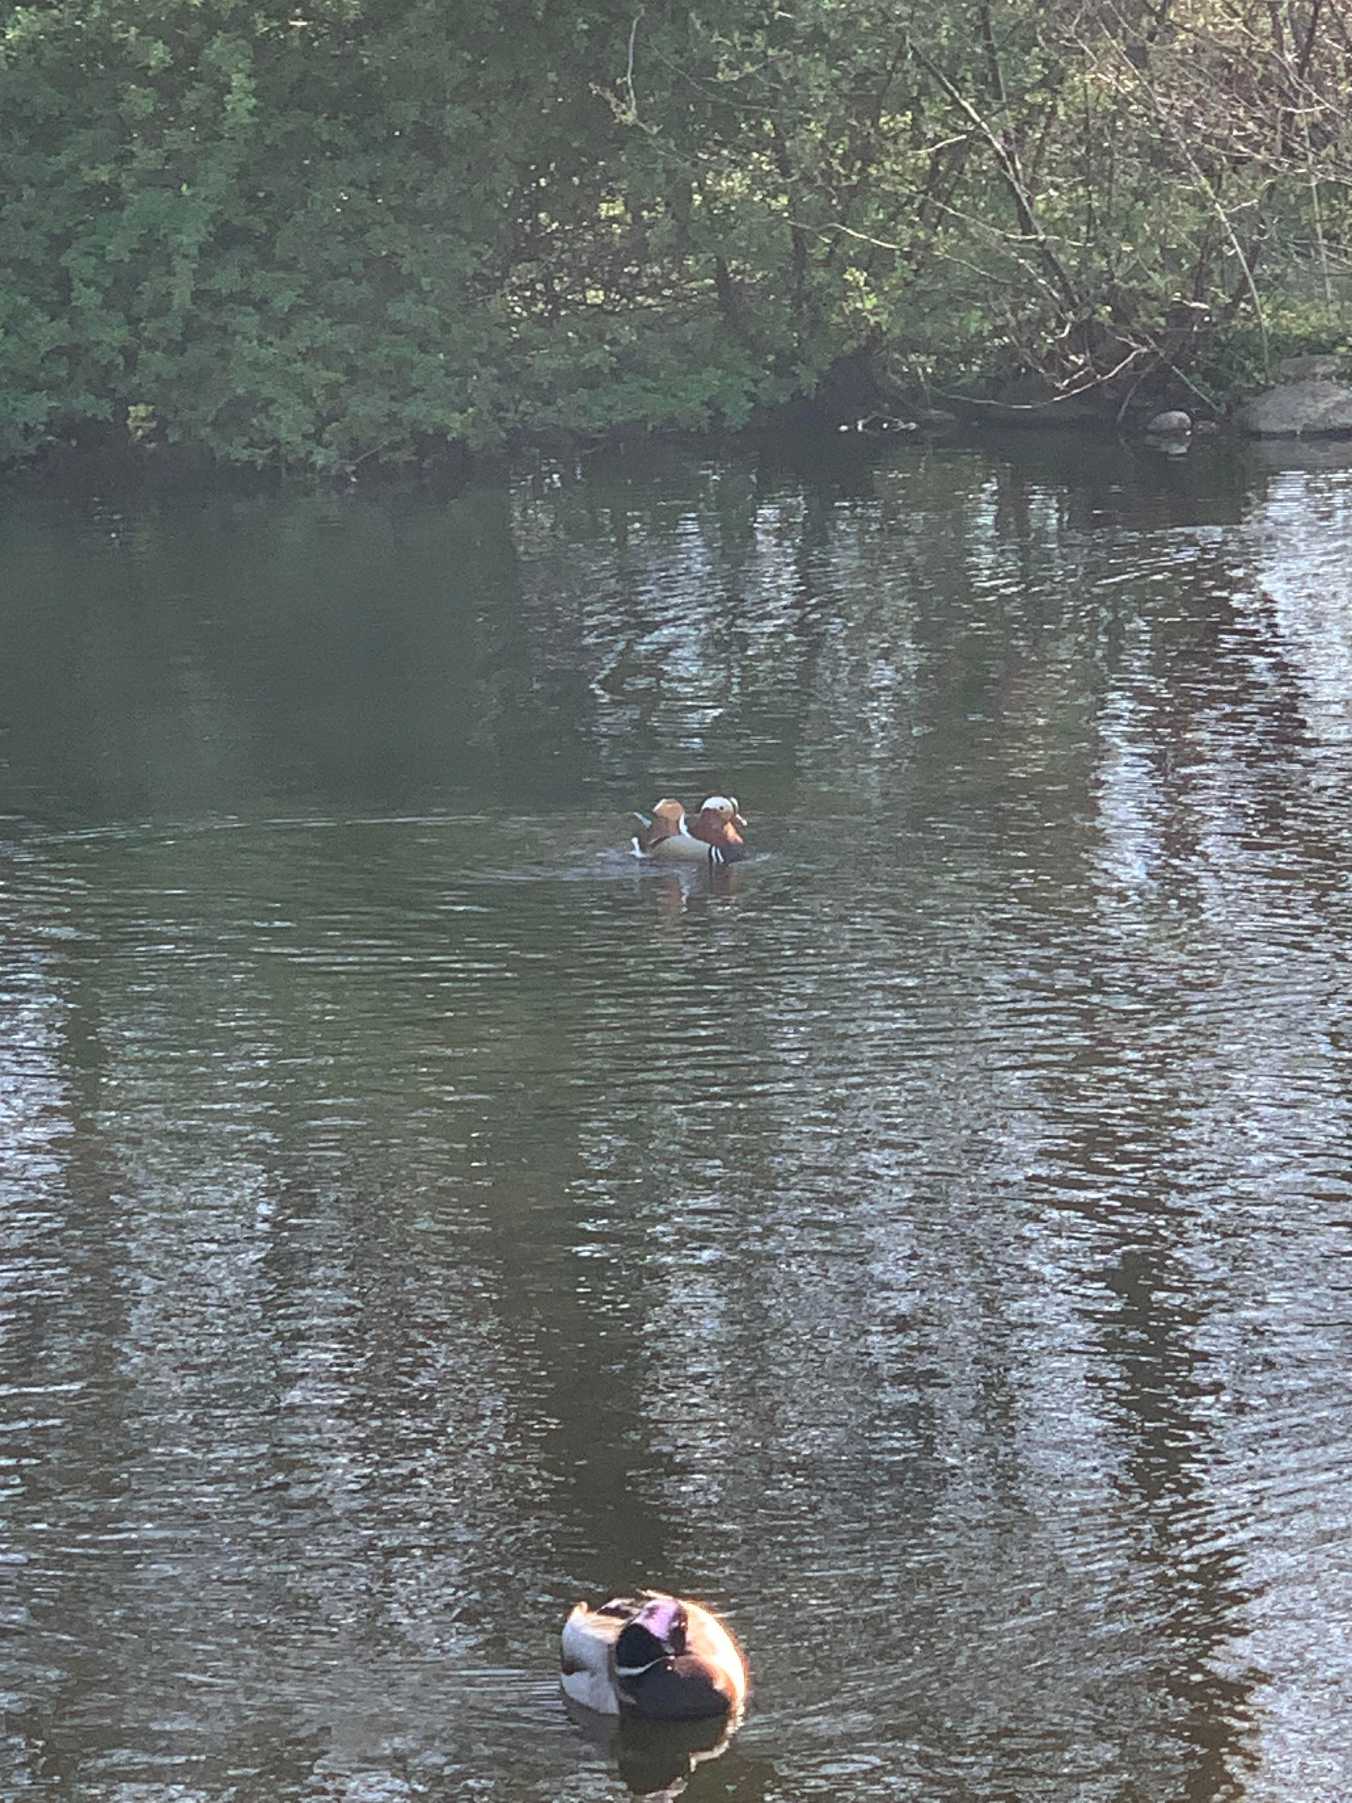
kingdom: Animalia
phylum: Chordata
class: Aves
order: Anseriformes
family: Anatidae
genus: Aix
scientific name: Aix galericulata
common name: Mandarinand
